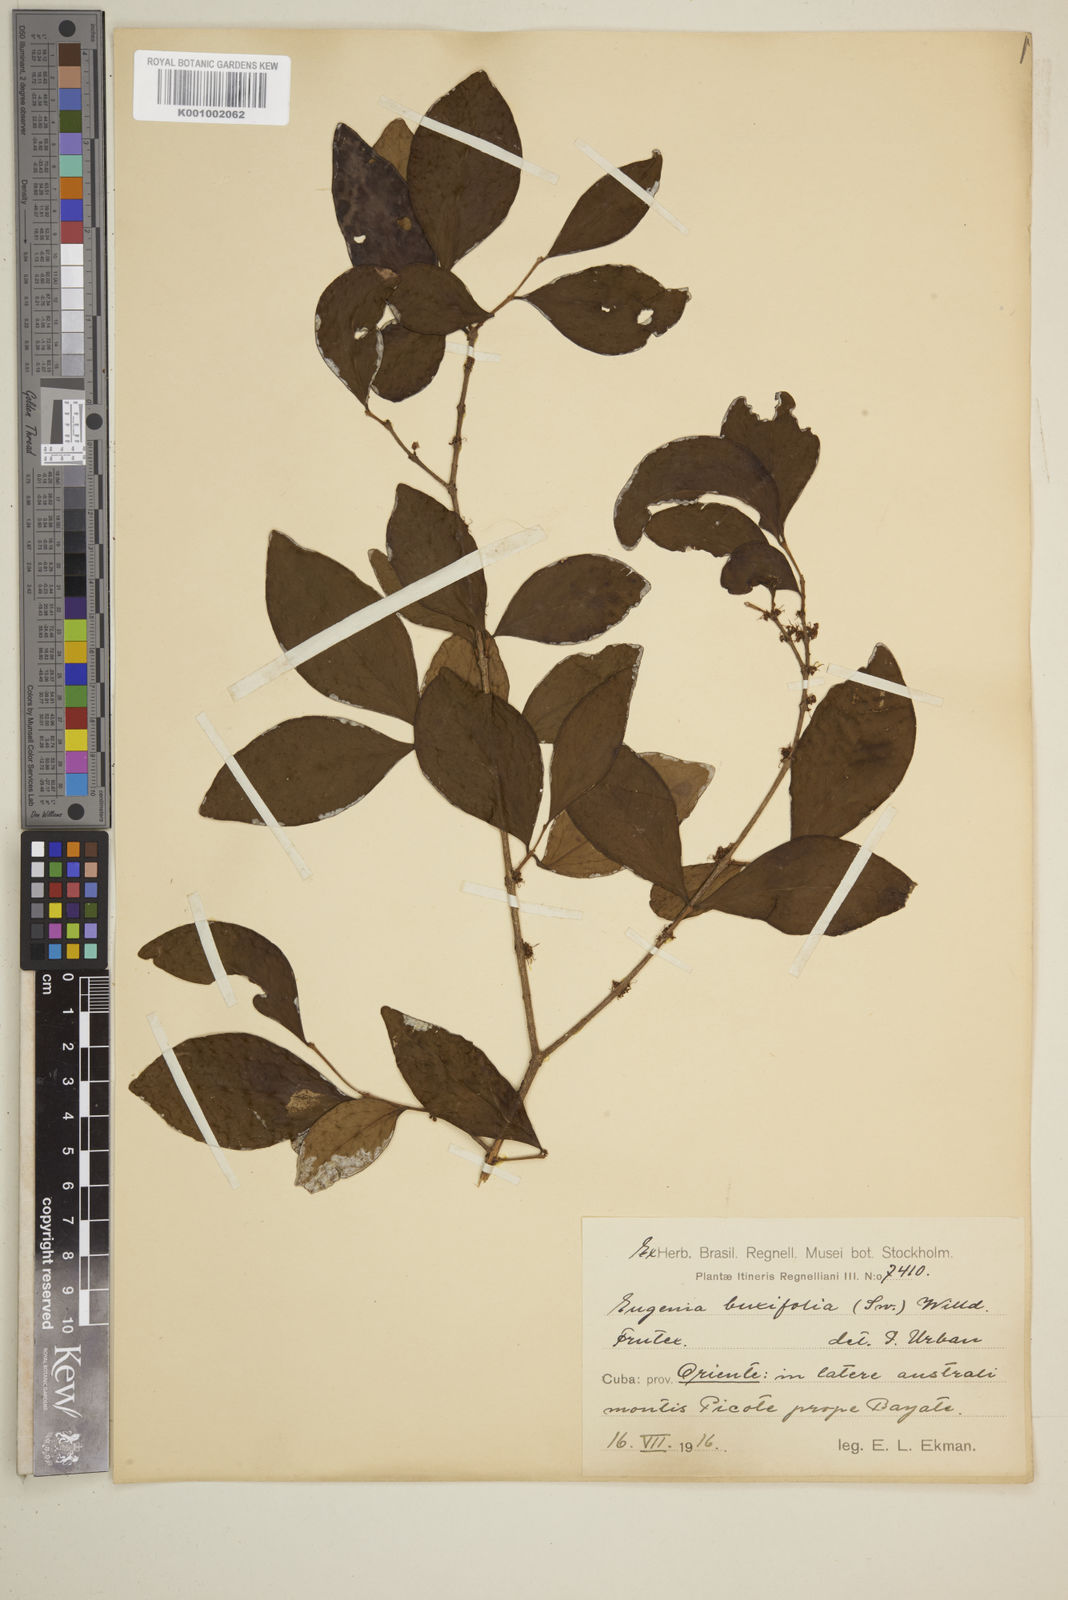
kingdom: Plantae
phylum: Tracheophyta
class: Magnoliopsida
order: Myrtales
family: Myrtaceae
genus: Eugenia
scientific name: Eugenia buxifolia
